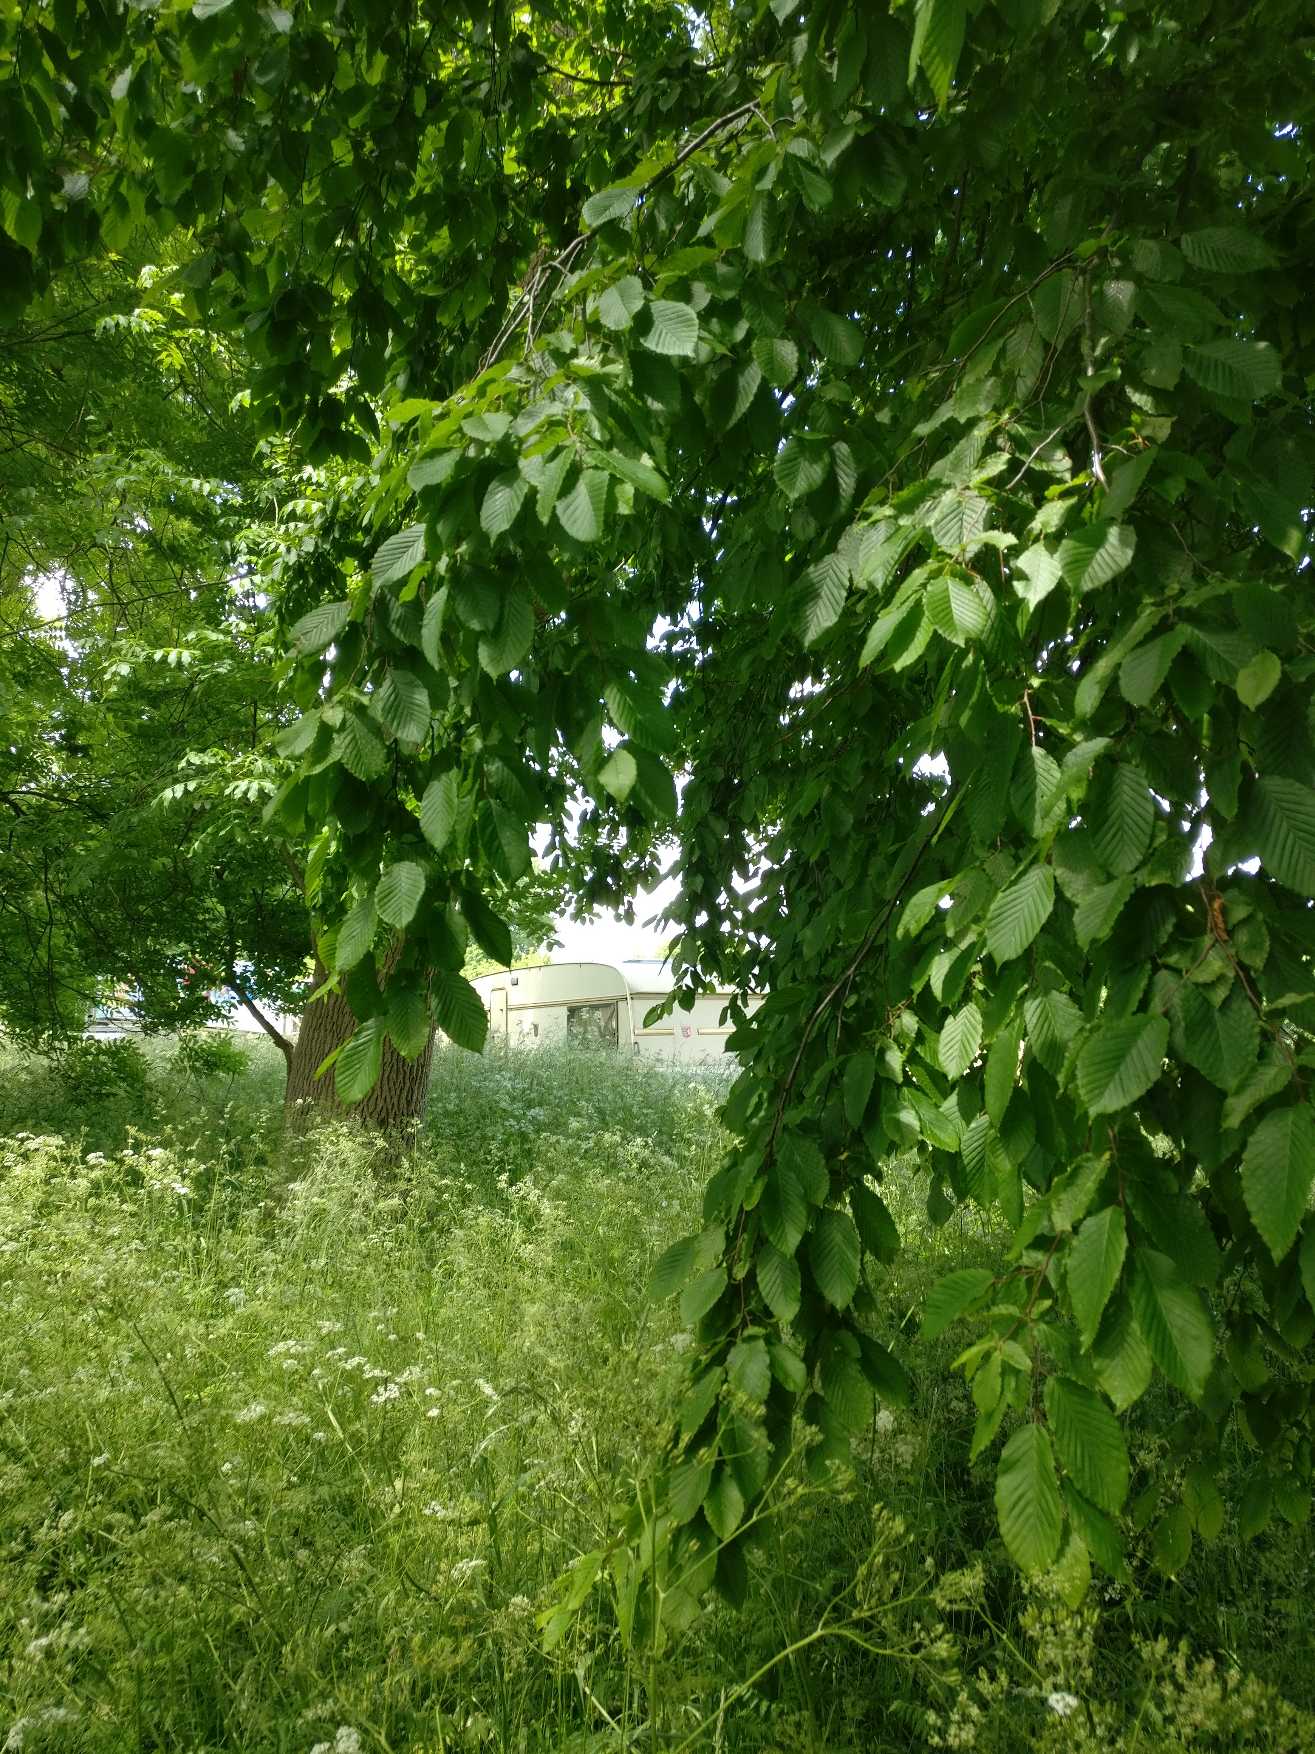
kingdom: Plantae
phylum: Tracheophyta
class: Magnoliopsida
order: Fagales
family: Betulaceae
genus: Carpinus
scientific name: Carpinus betulus
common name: Avnbøg
